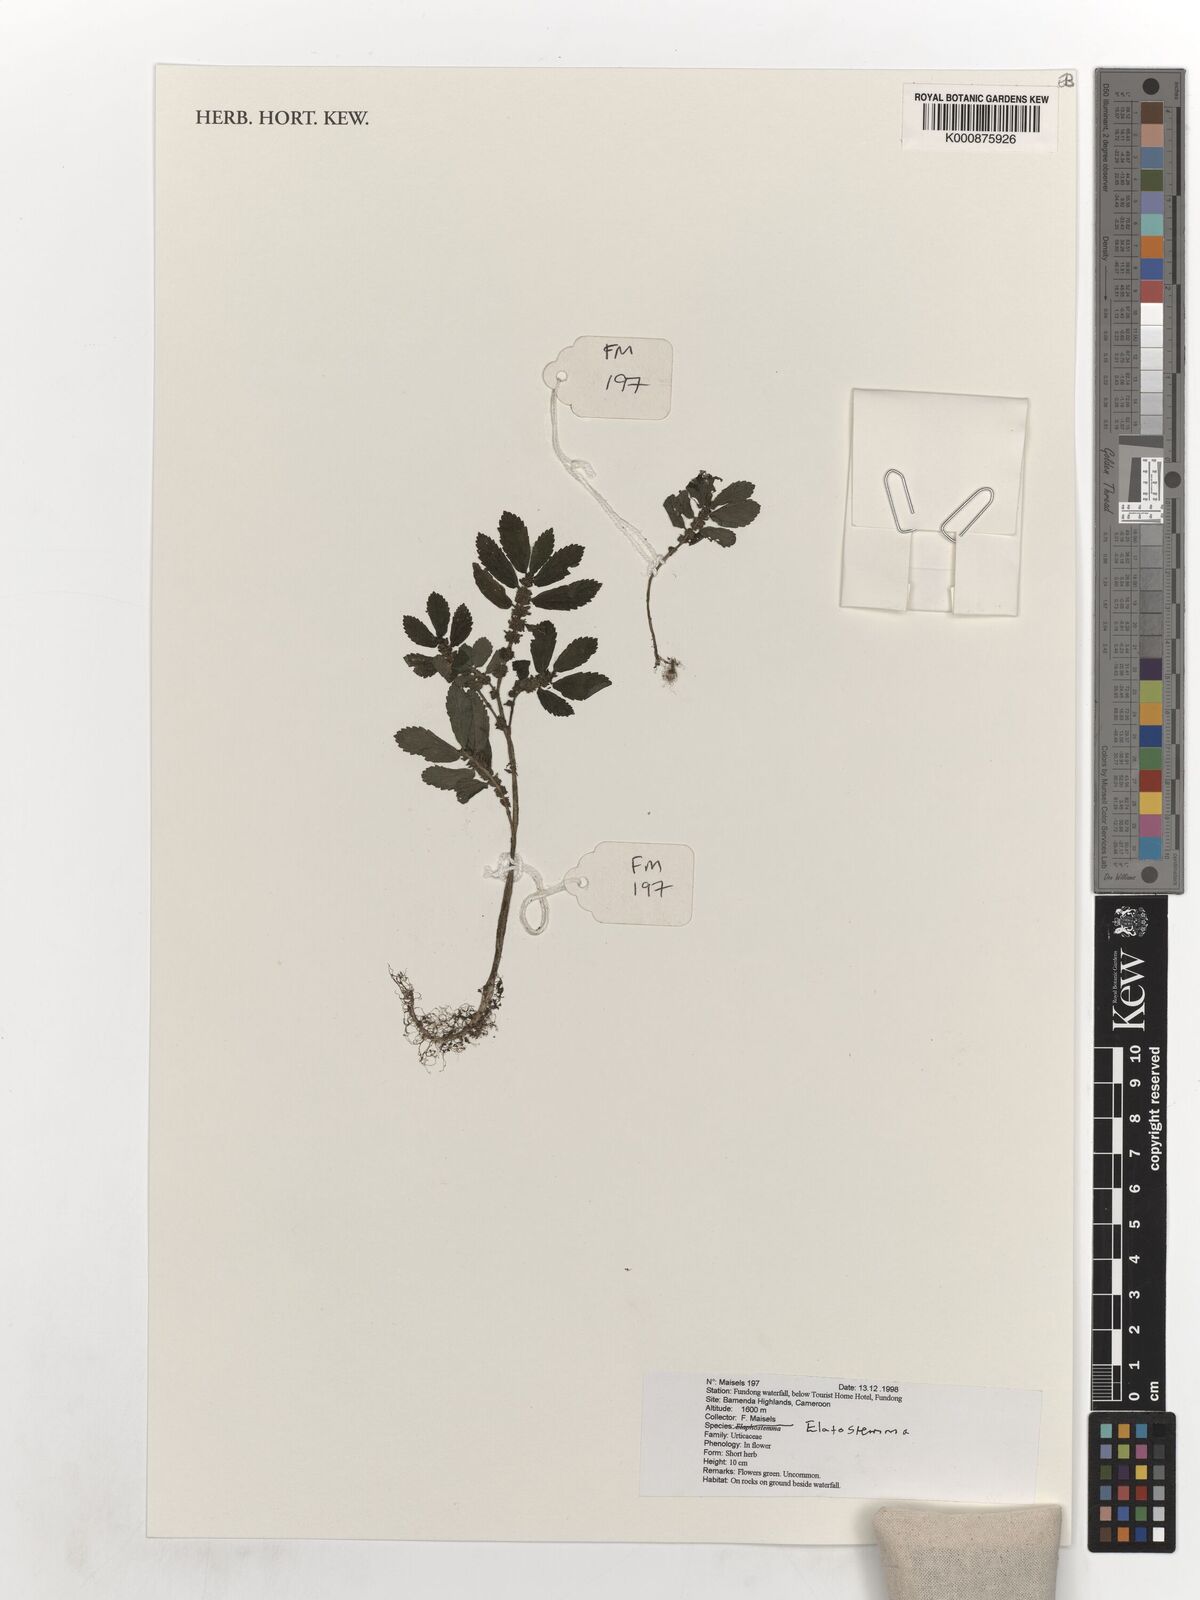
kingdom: Plantae
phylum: Tracheophyta
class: Magnoliopsida
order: Rosales
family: Urticaceae
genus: Elatostema
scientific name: Elatostema
